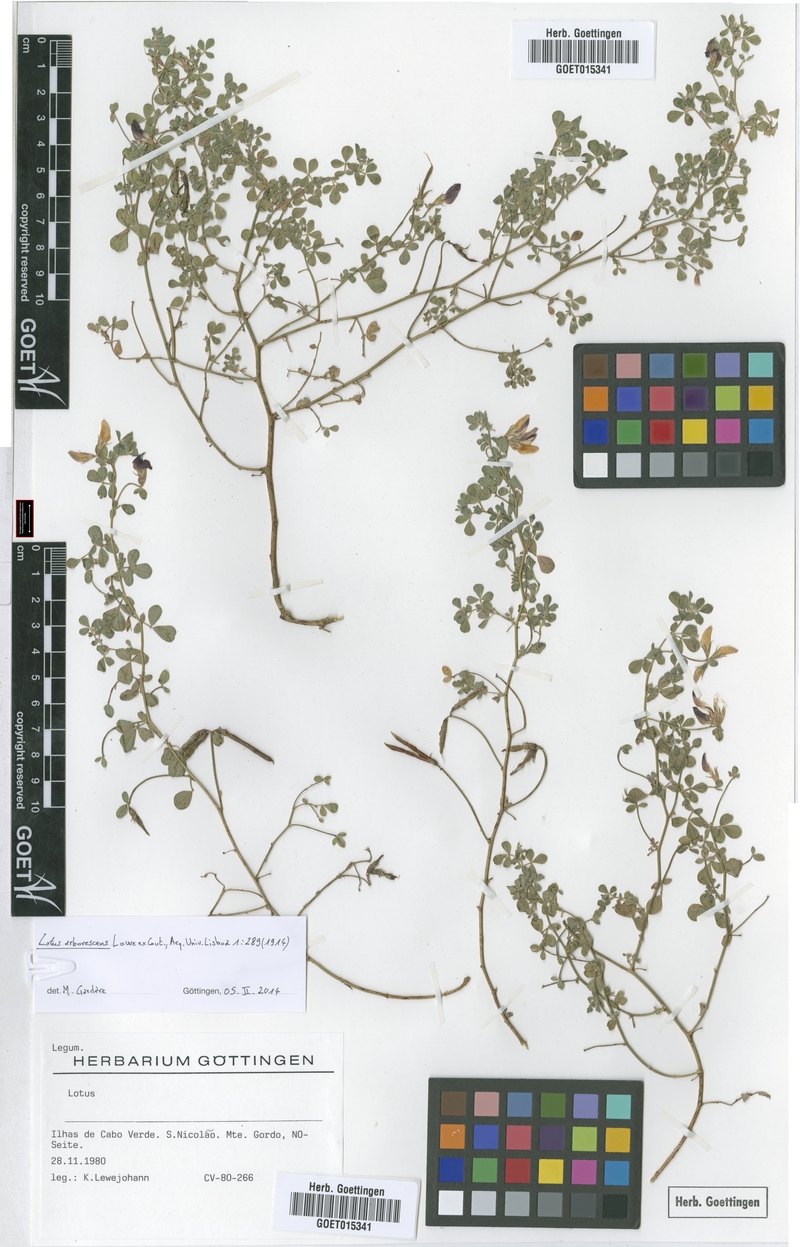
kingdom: Plantae
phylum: Tracheophyta
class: Magnoliopsida
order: Fabales
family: Fabaceae
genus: Lotus
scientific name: Lotus purpureus
